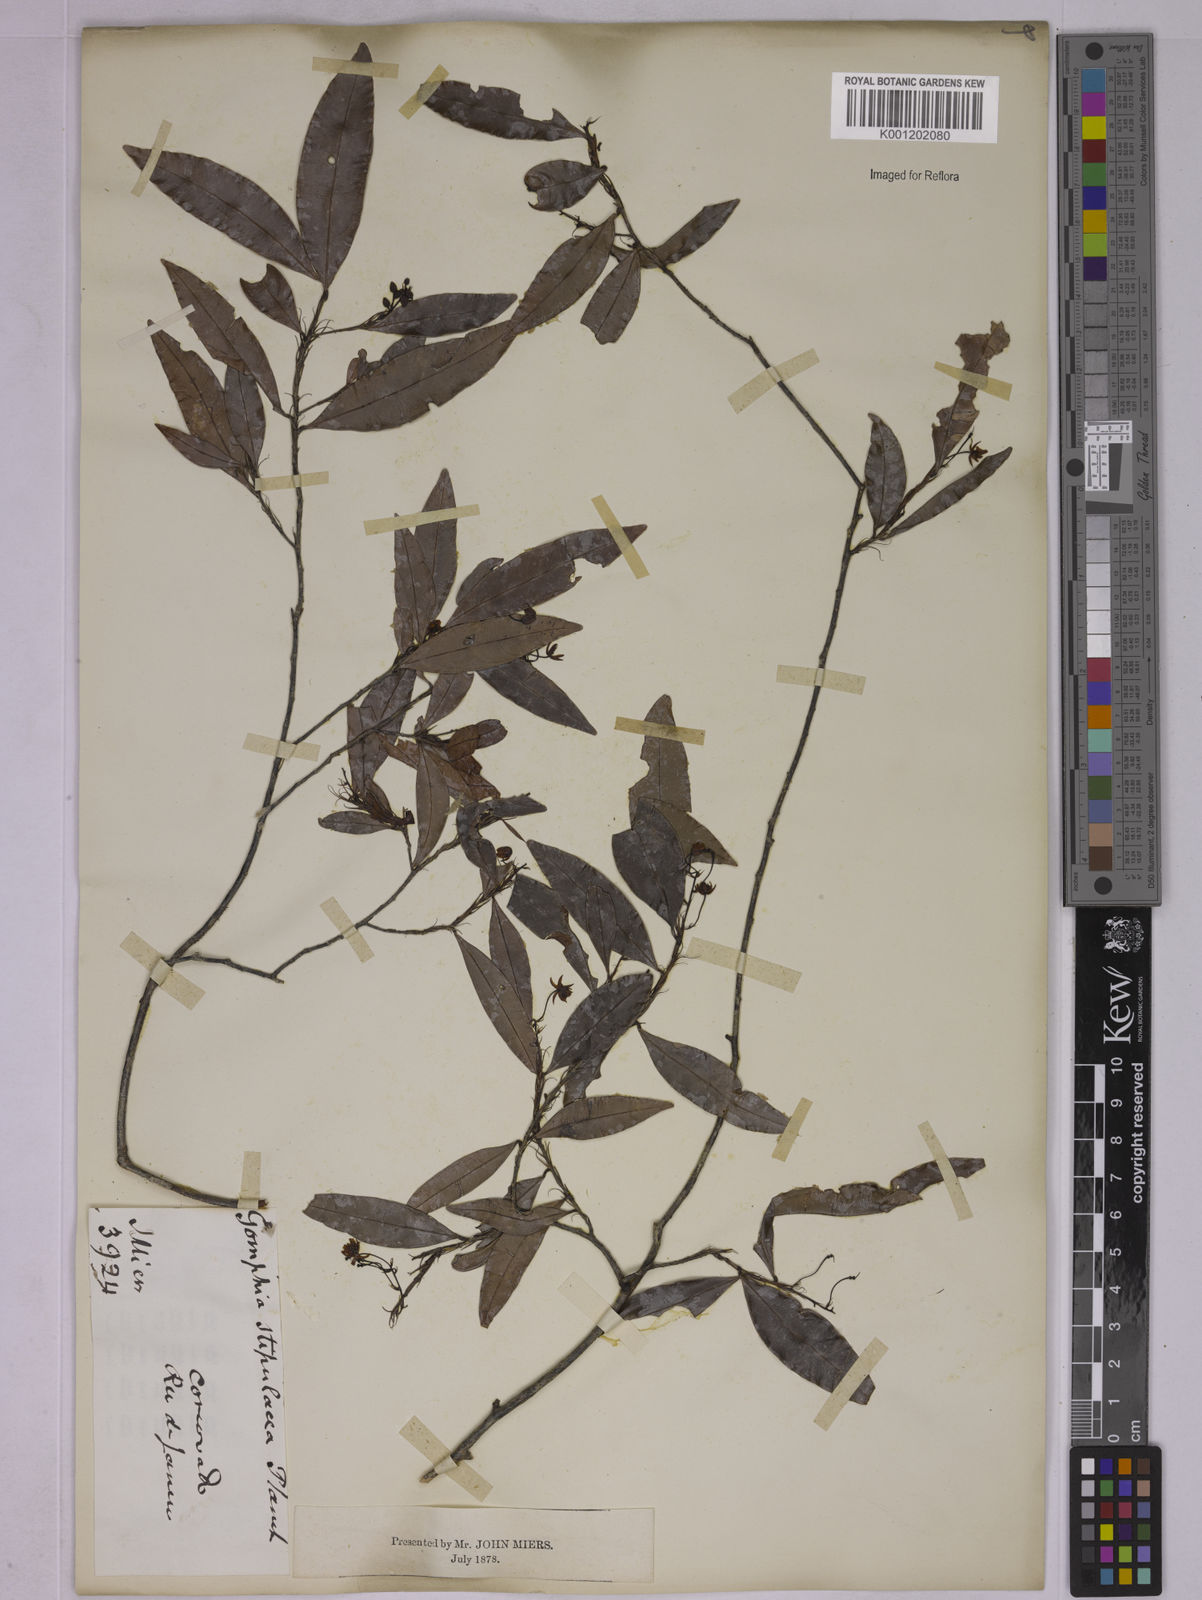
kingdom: Plantae
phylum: Tracheophyta
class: Magnoliopsida
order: Malpighiales
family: Ochnaceae
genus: Ouratea
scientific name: Ouratea stipulata
